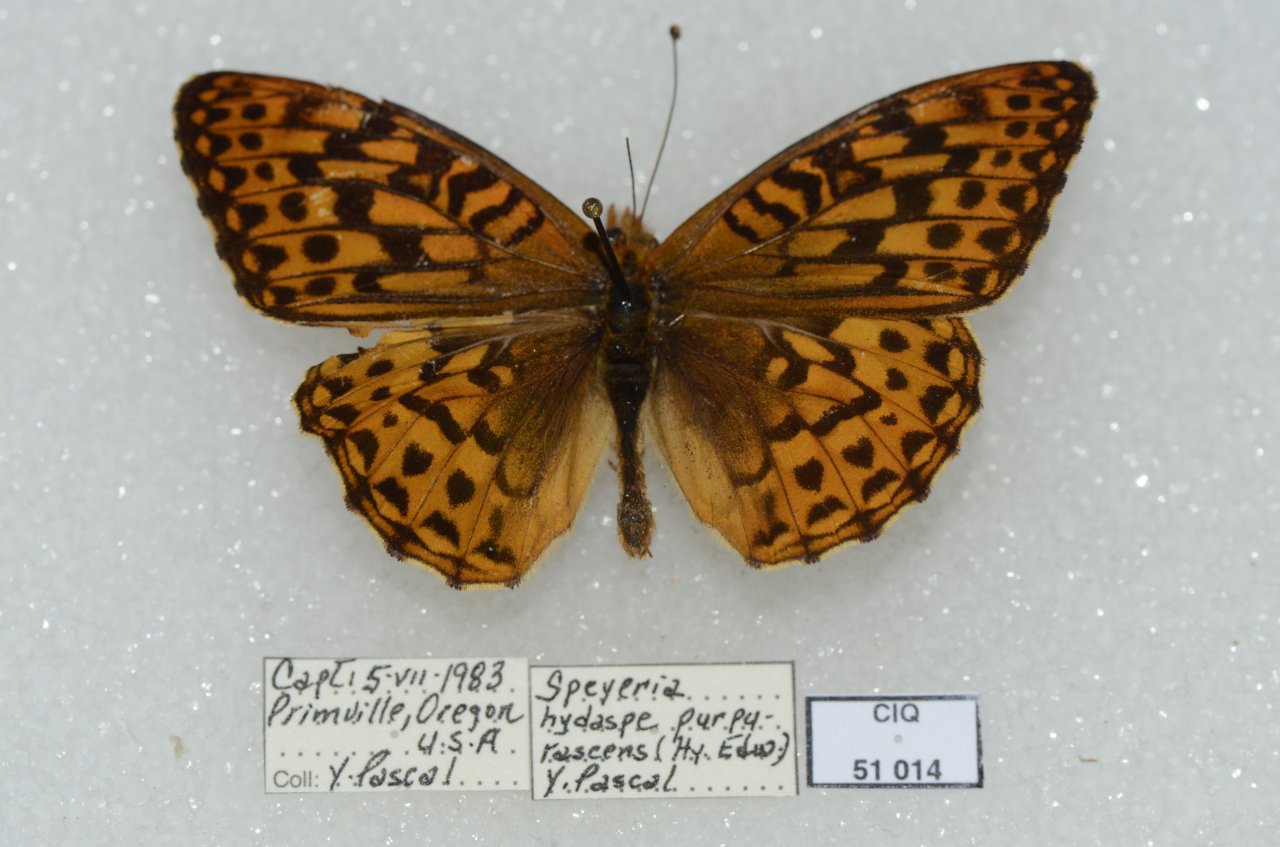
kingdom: Animalia
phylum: Arthropoda
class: Insecta
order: Lepidoptera
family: Nymphalidae
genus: Speyeria
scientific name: Speyeria hydaspe
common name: Hydaspe Fritillary
